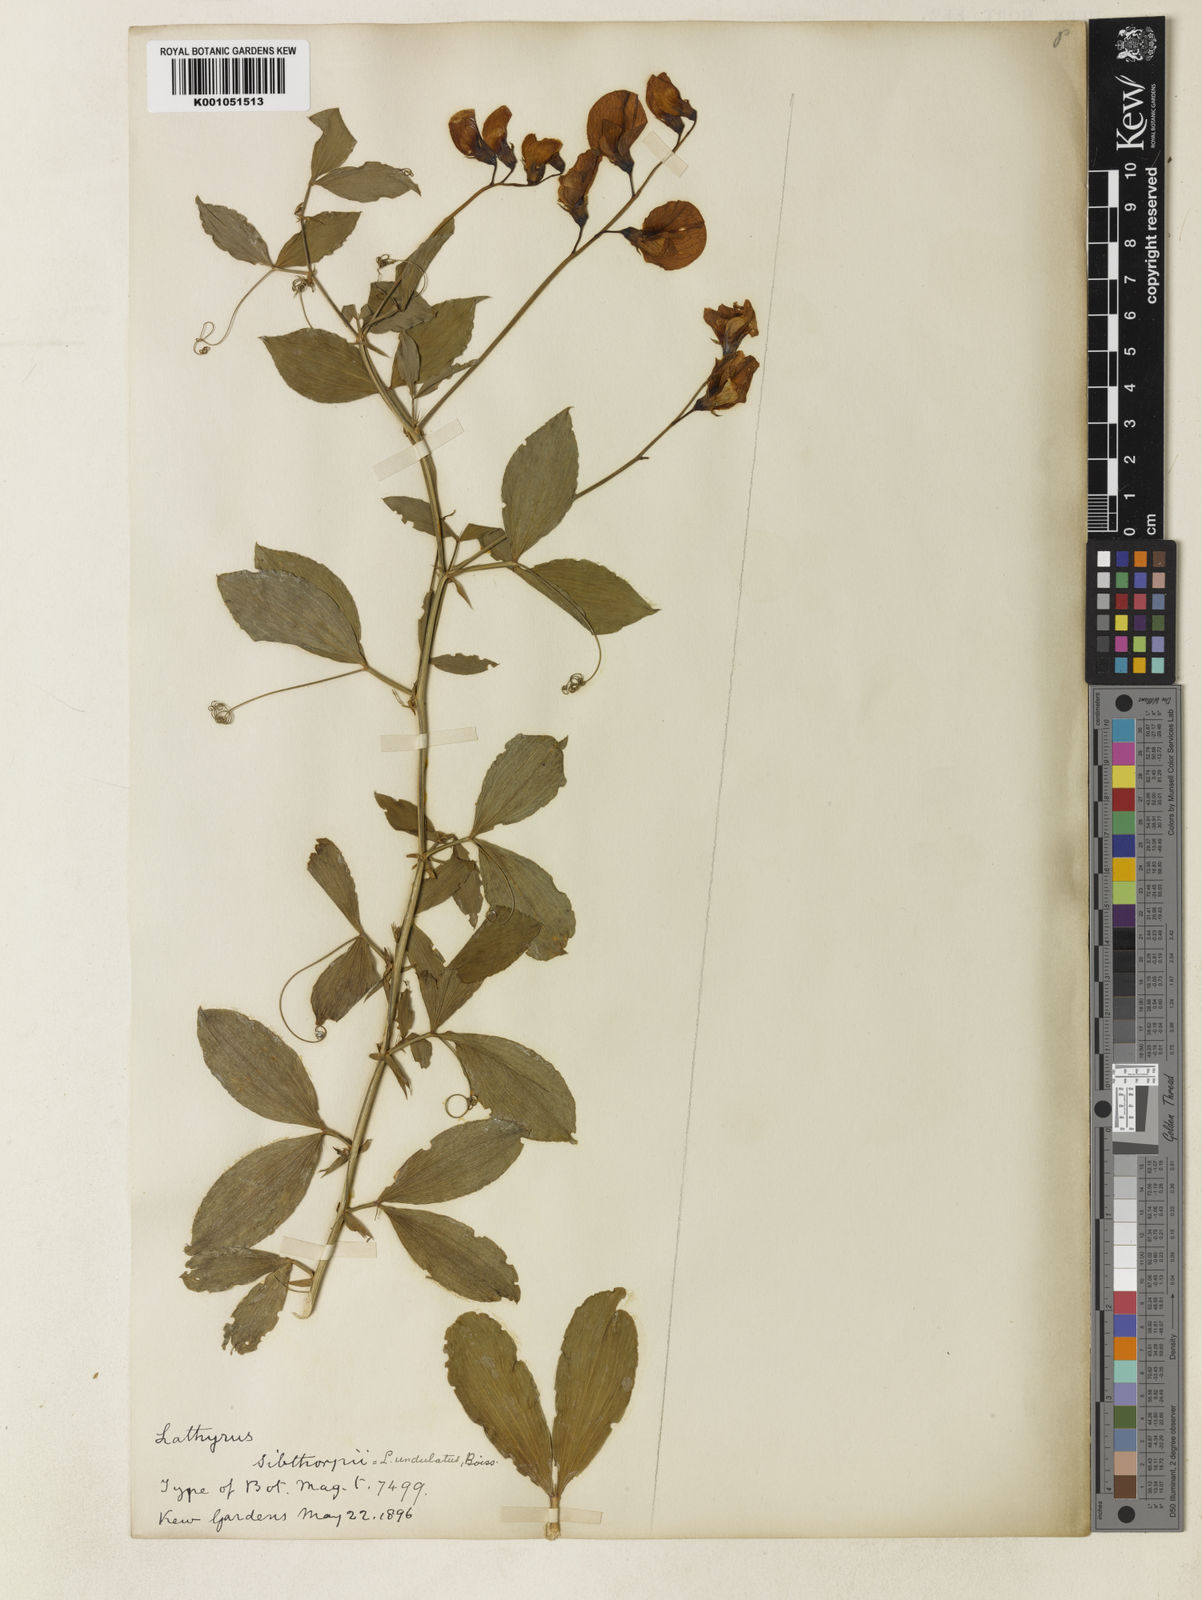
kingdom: Plantae
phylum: Tracheophyta
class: Magnoliopsida
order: Fabales
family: Fabaceae
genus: Lathyrus
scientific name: Lathyrus undulatus
